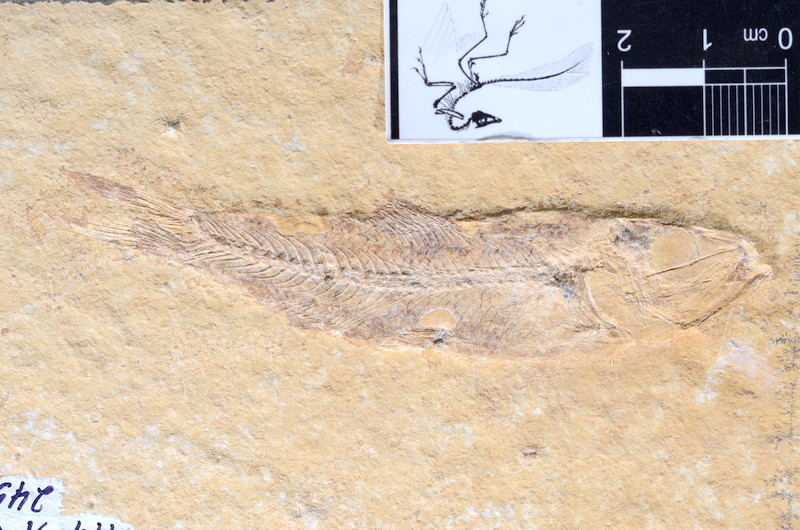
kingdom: Animalia
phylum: Chordata
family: Ascalaboidae
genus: Ascalabos
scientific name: Ascalabos voithii
